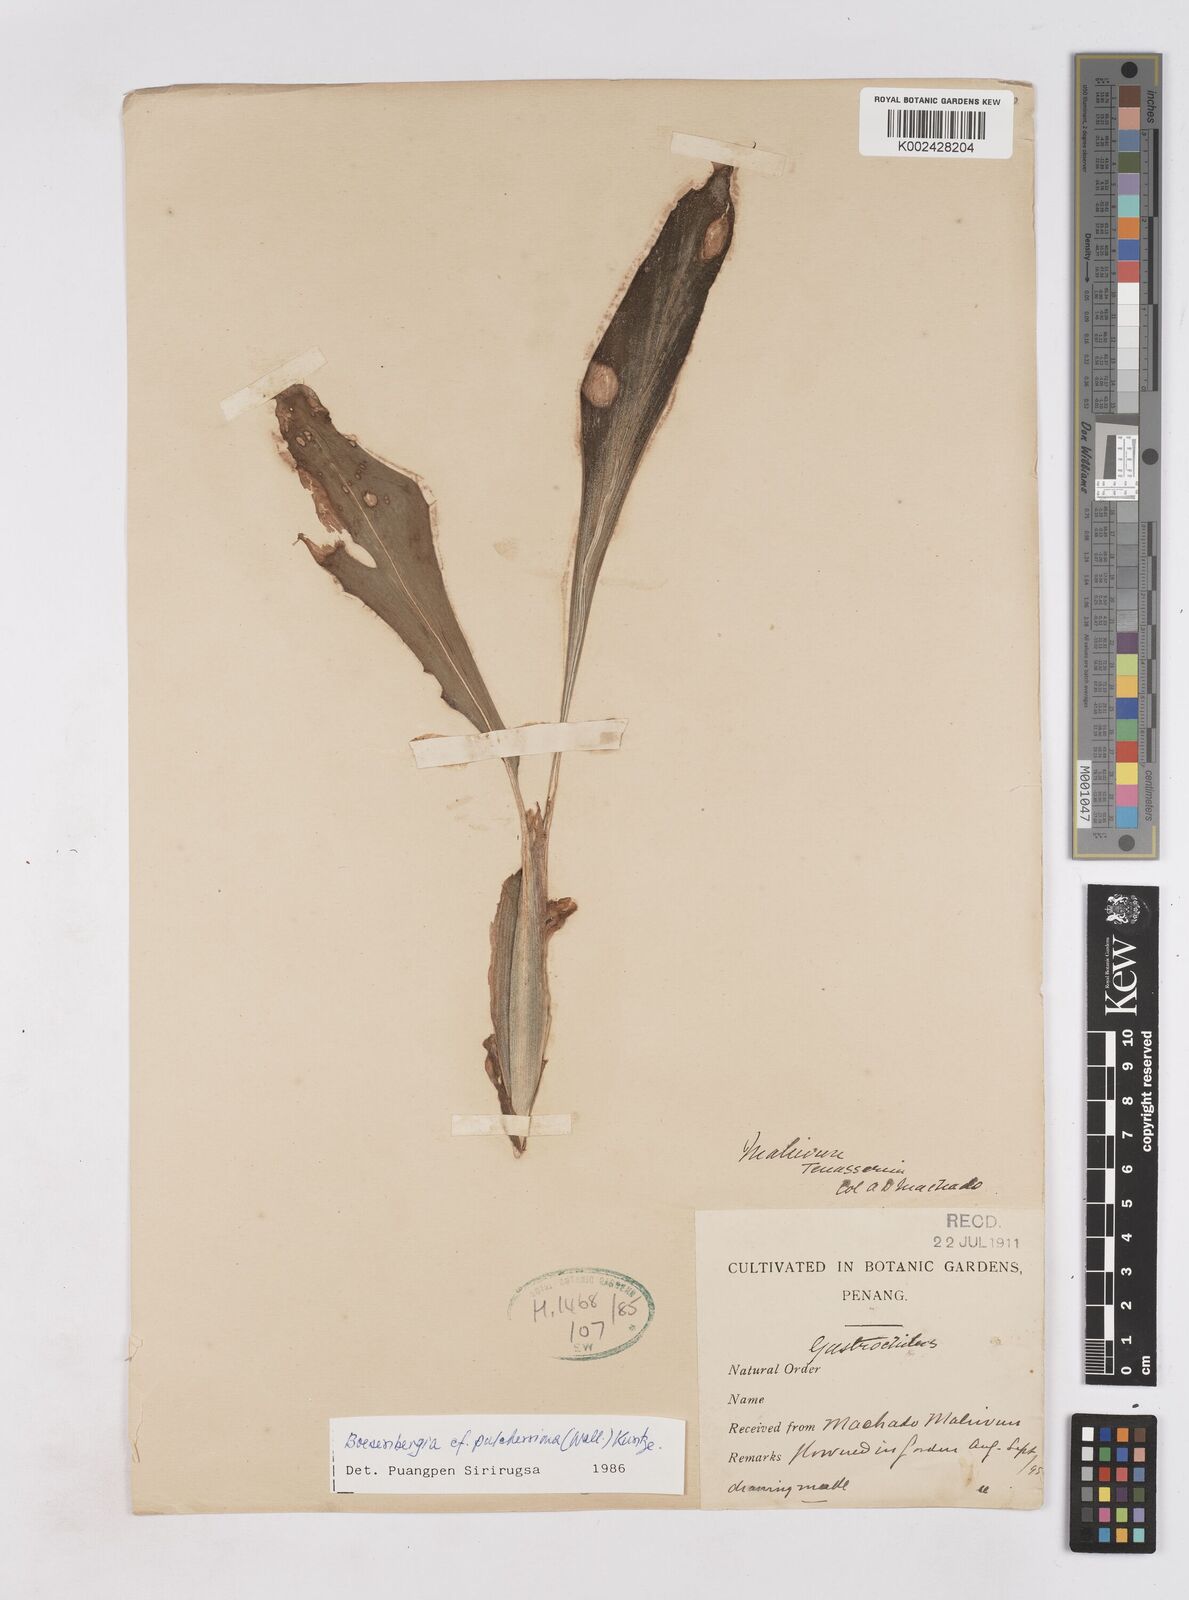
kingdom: Plantae
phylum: Tracheophyta
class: Liliopsida
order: Zingiberales
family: Zingiberaceae
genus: Boesenbergia
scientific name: Boesenbergia pulcherrima
